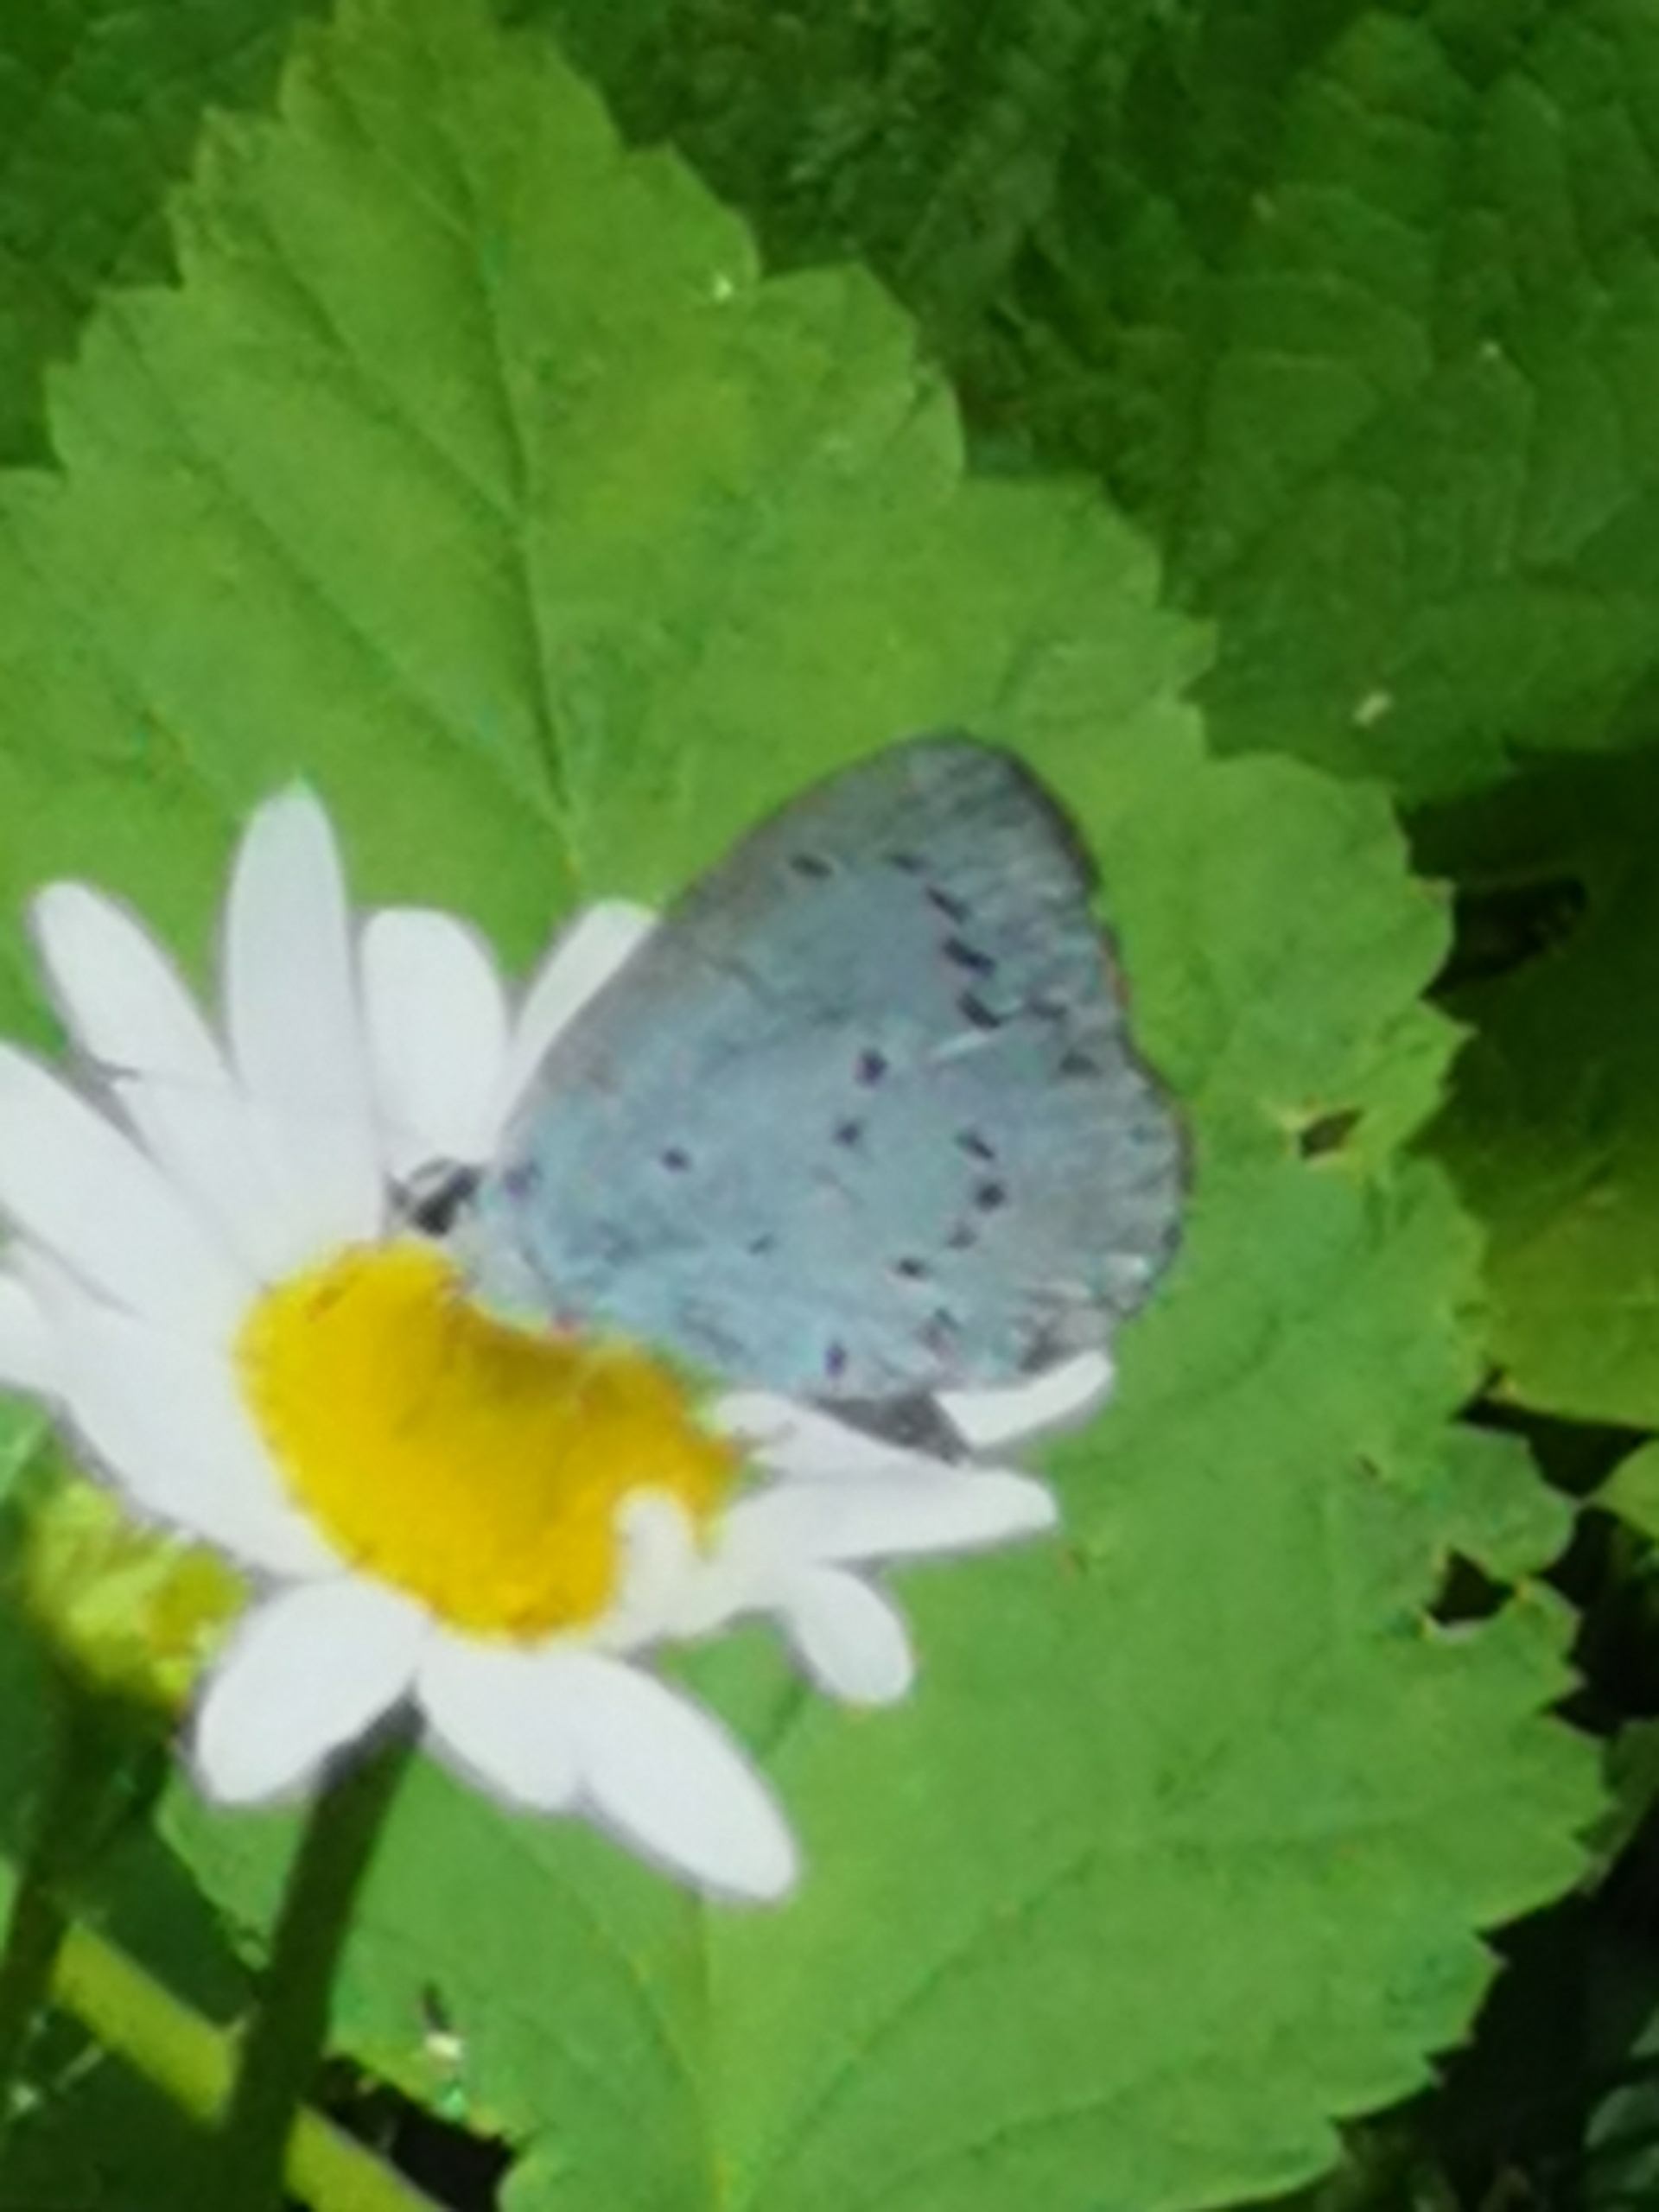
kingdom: Animalia
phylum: Arthropoda
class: Insecta
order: Lepidoptera
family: Lycaenidae
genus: Celastrina
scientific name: Celastrina argiolus
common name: Skovblåfugl
